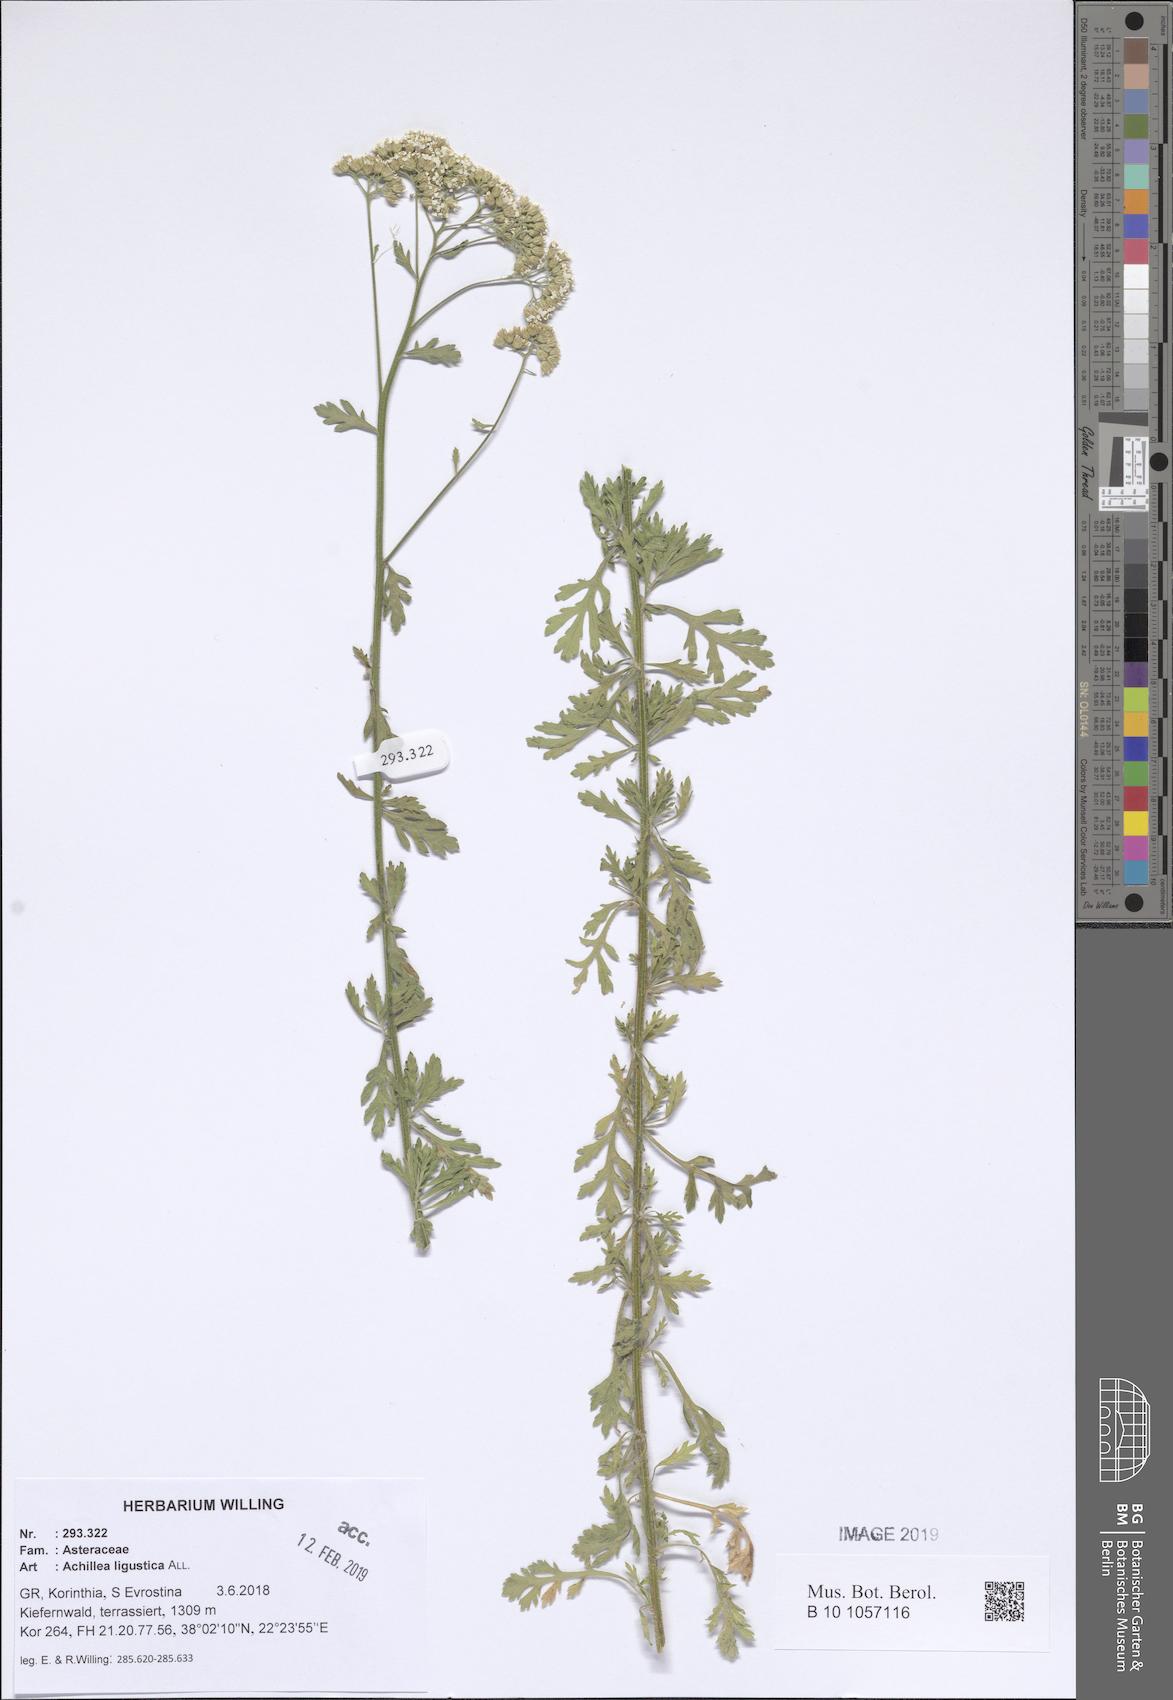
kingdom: Plantae
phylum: Tracheophyta
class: Magnoliopsida
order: Asterales
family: Asteraceae
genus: Achillea
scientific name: Achillea ligustica
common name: Southern yarrow
